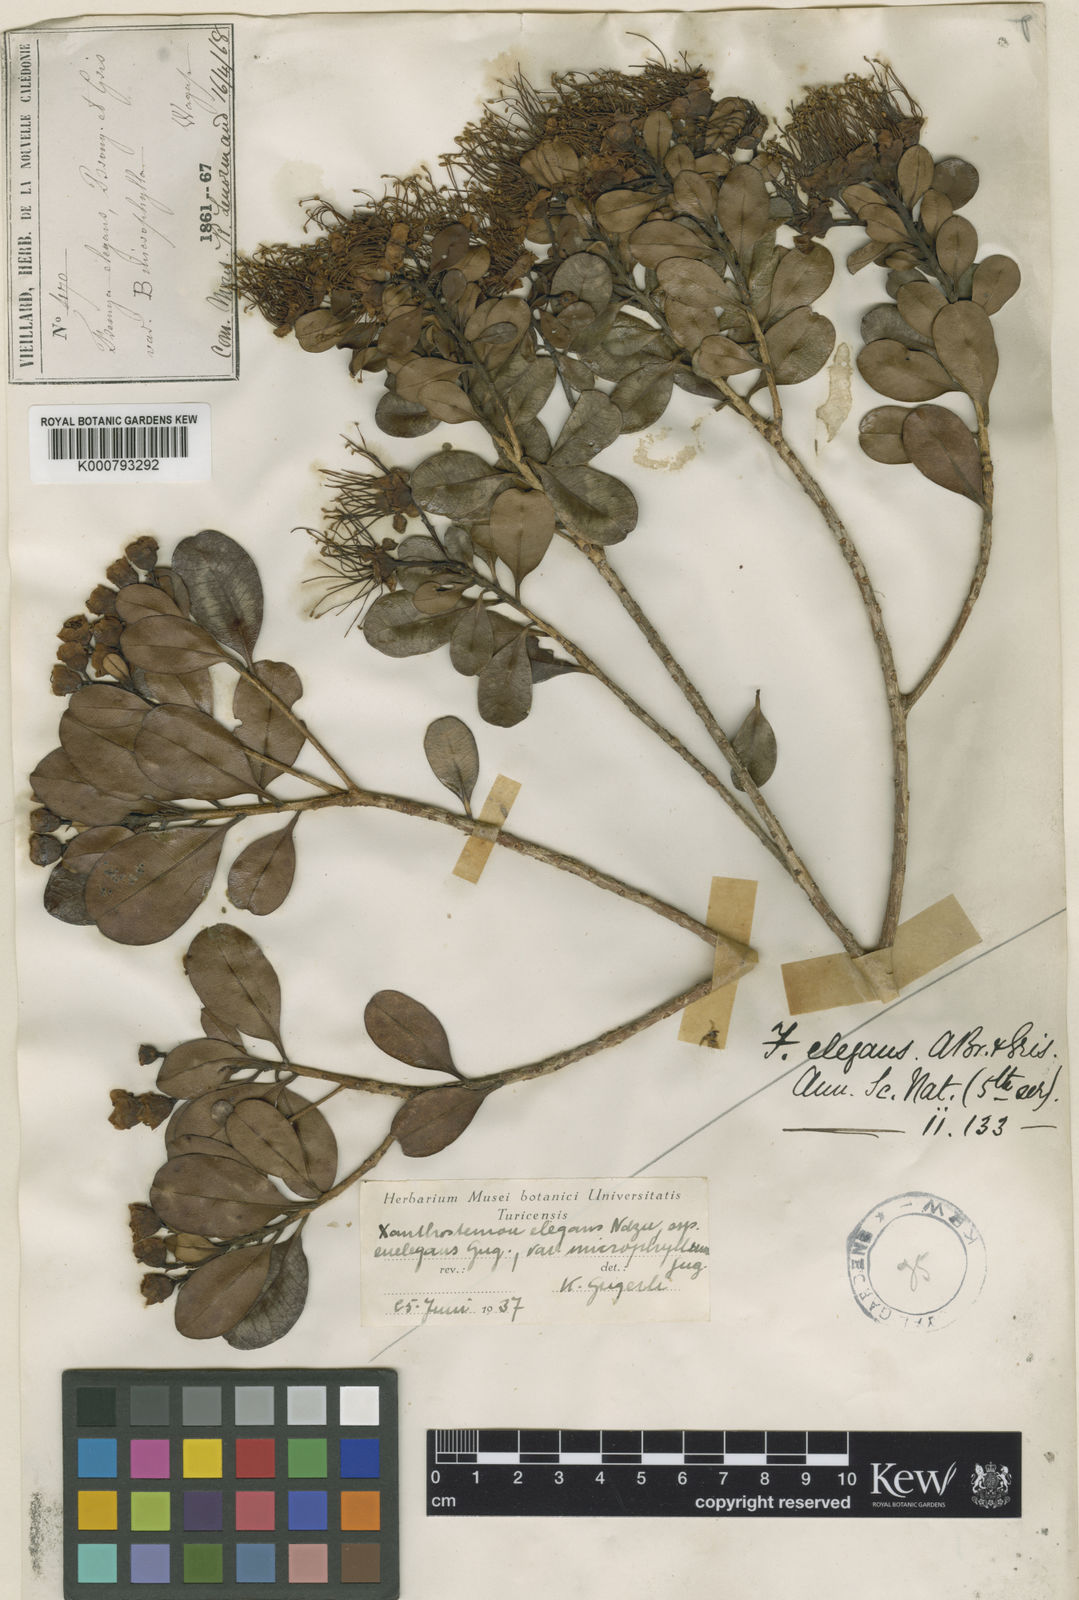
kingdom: Plantae
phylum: Tracheophyta
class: Magnoliopsida
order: Myrtales
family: Myrtaceae
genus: Xanthostemon
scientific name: Xanthostemon multiflorus
